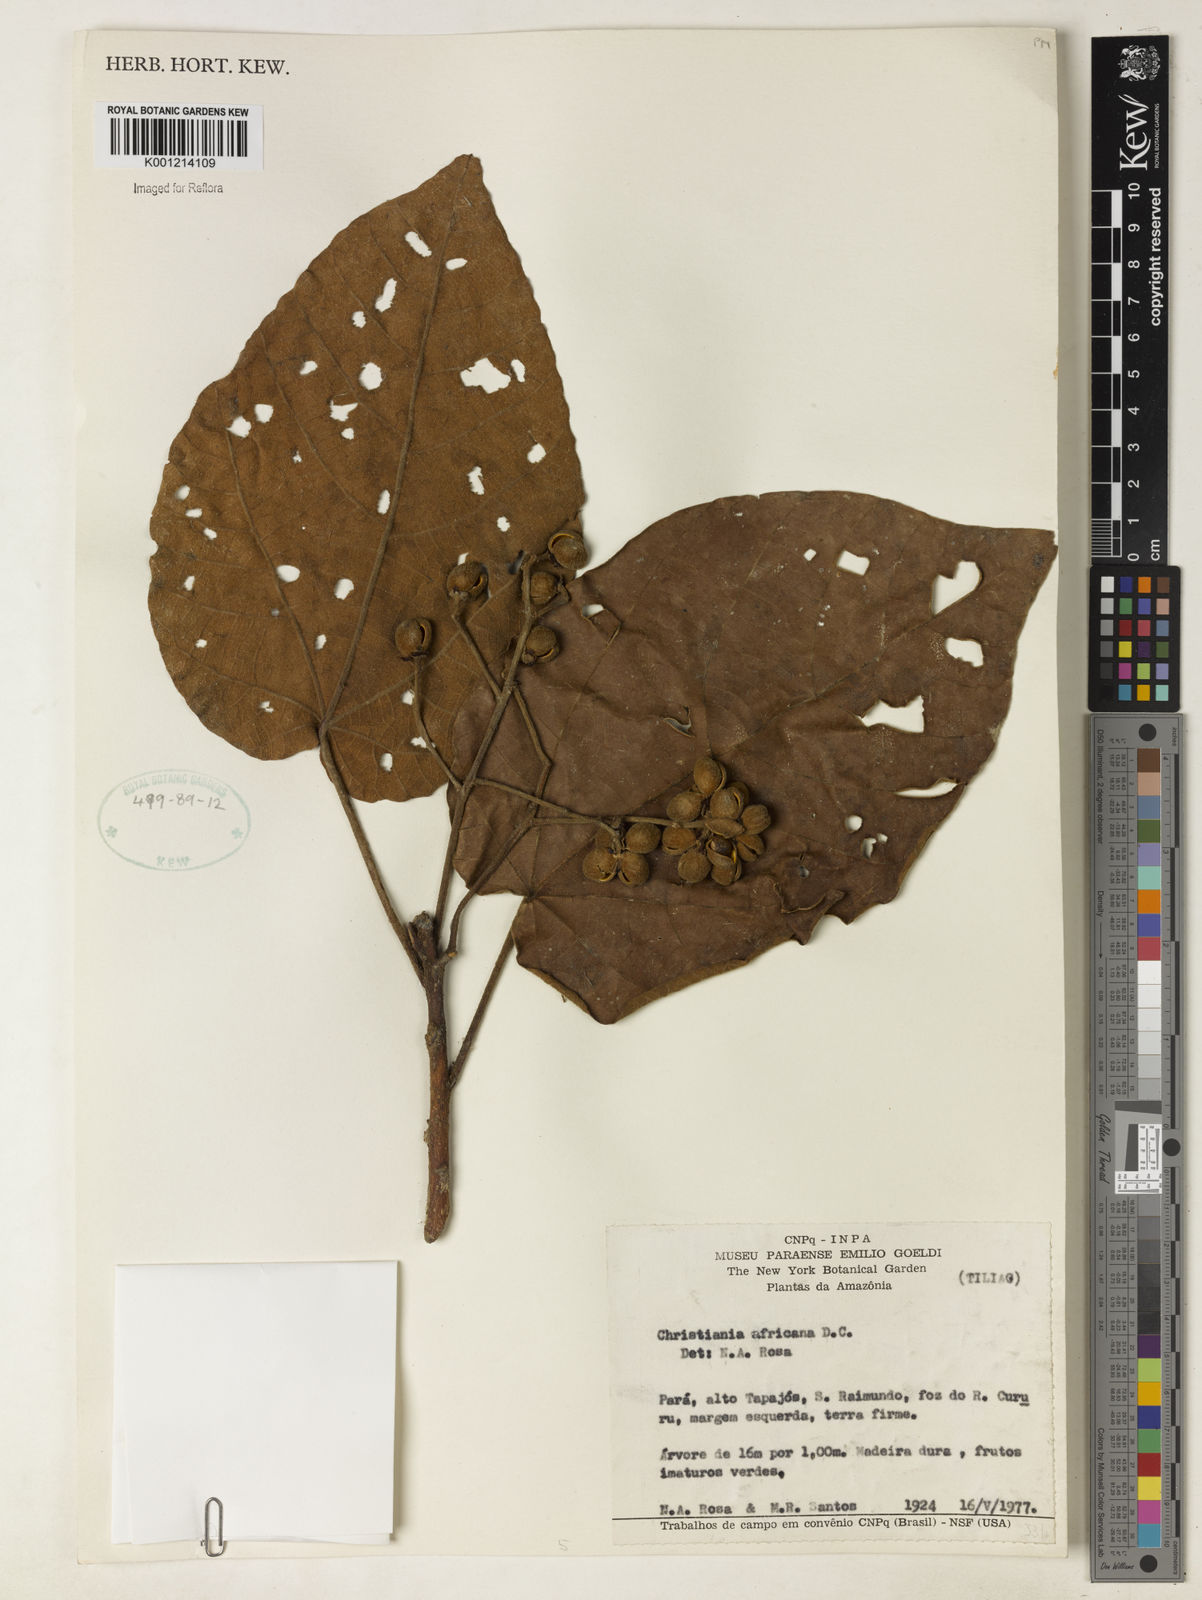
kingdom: Plantae
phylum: Tracheophyta
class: Magnoliopsida
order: Malvales
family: Malvaceae
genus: Christiana
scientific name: Christiana africana
